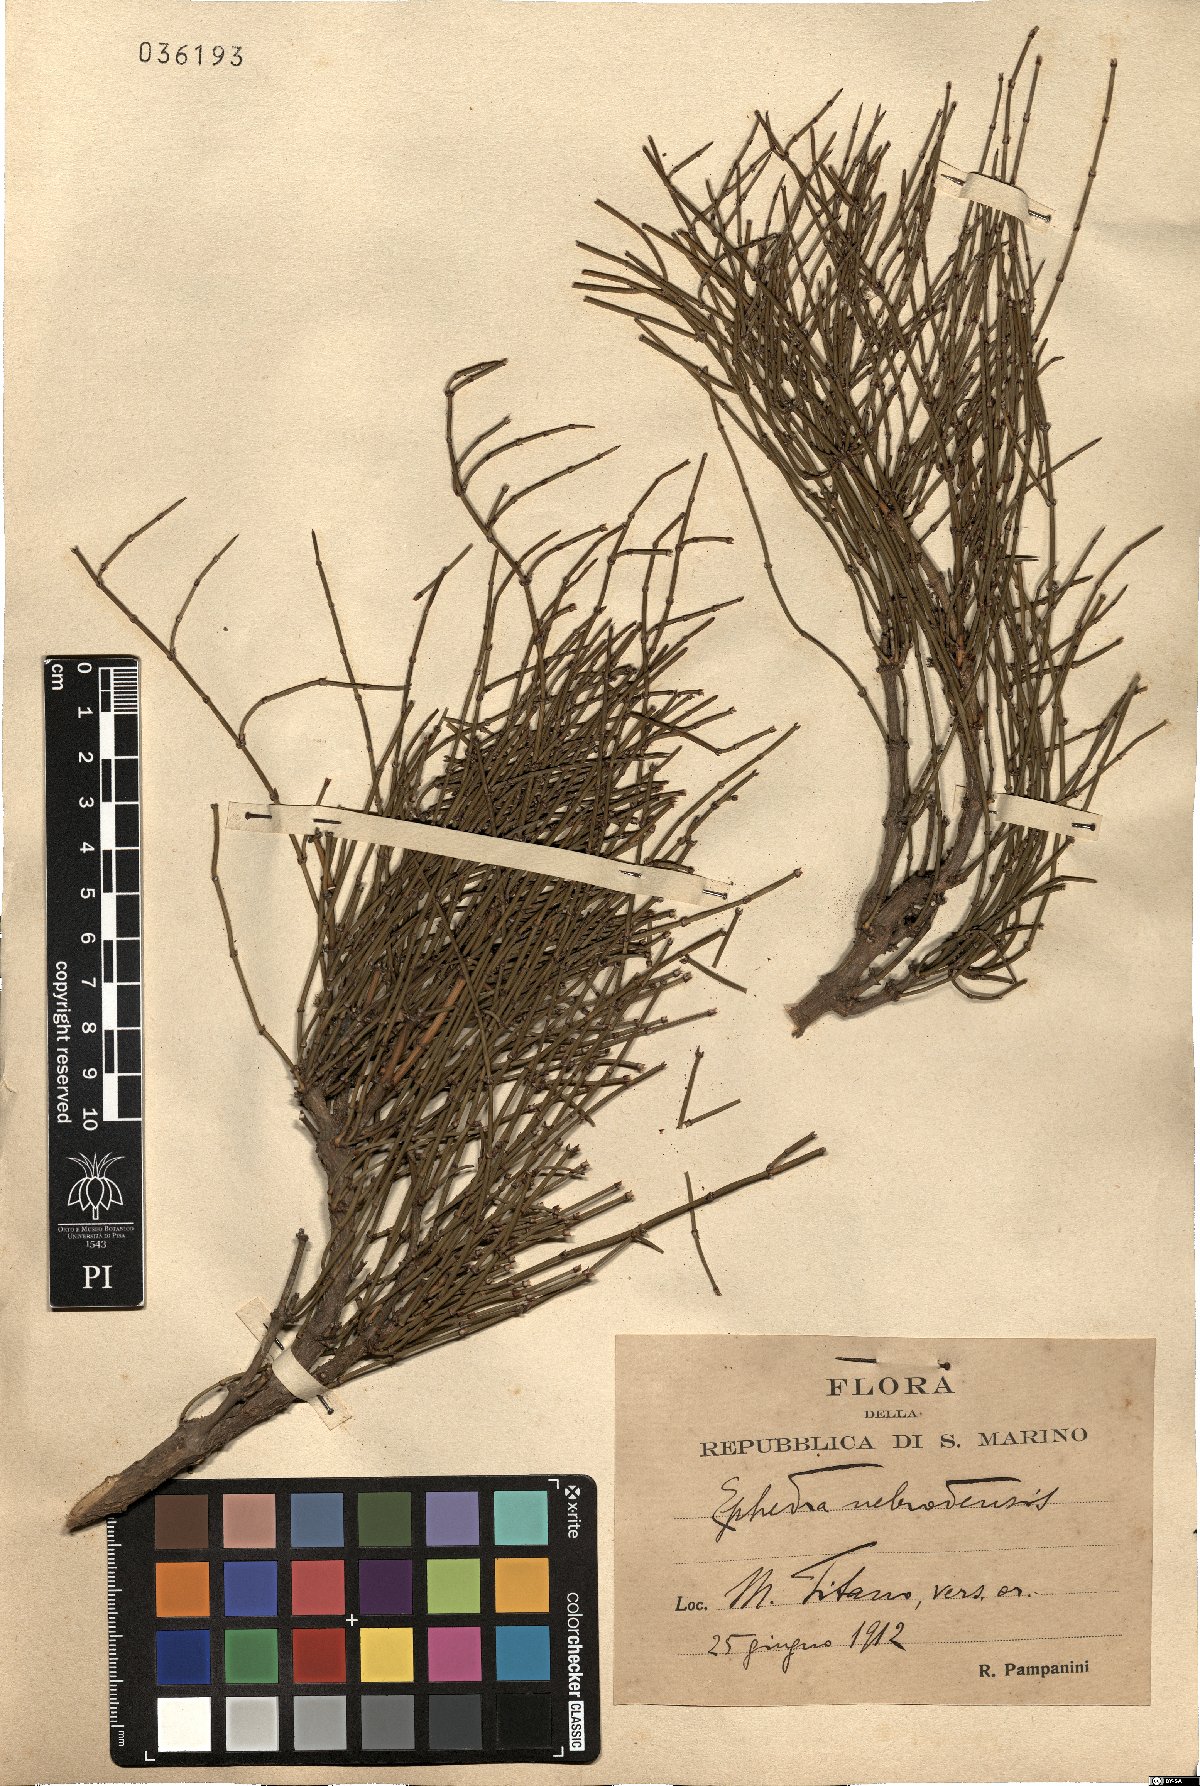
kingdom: Plantae
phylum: Tracheophyta
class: Gnetopsida
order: Ephedrales
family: Ephedraceae
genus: Ephedra
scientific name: Ephedra foeminea
